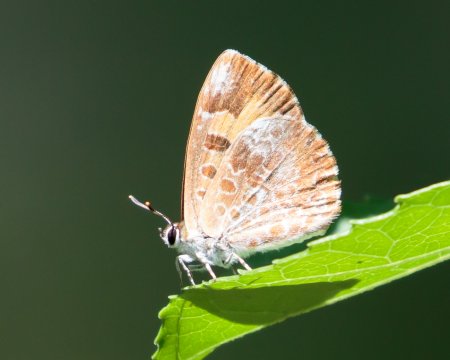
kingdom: Animalia
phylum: Arthropoda
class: Insecta
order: Lepidoptera
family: Lycaenidae
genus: Feniseca
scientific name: Feniseca tarquinius
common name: Harvester
